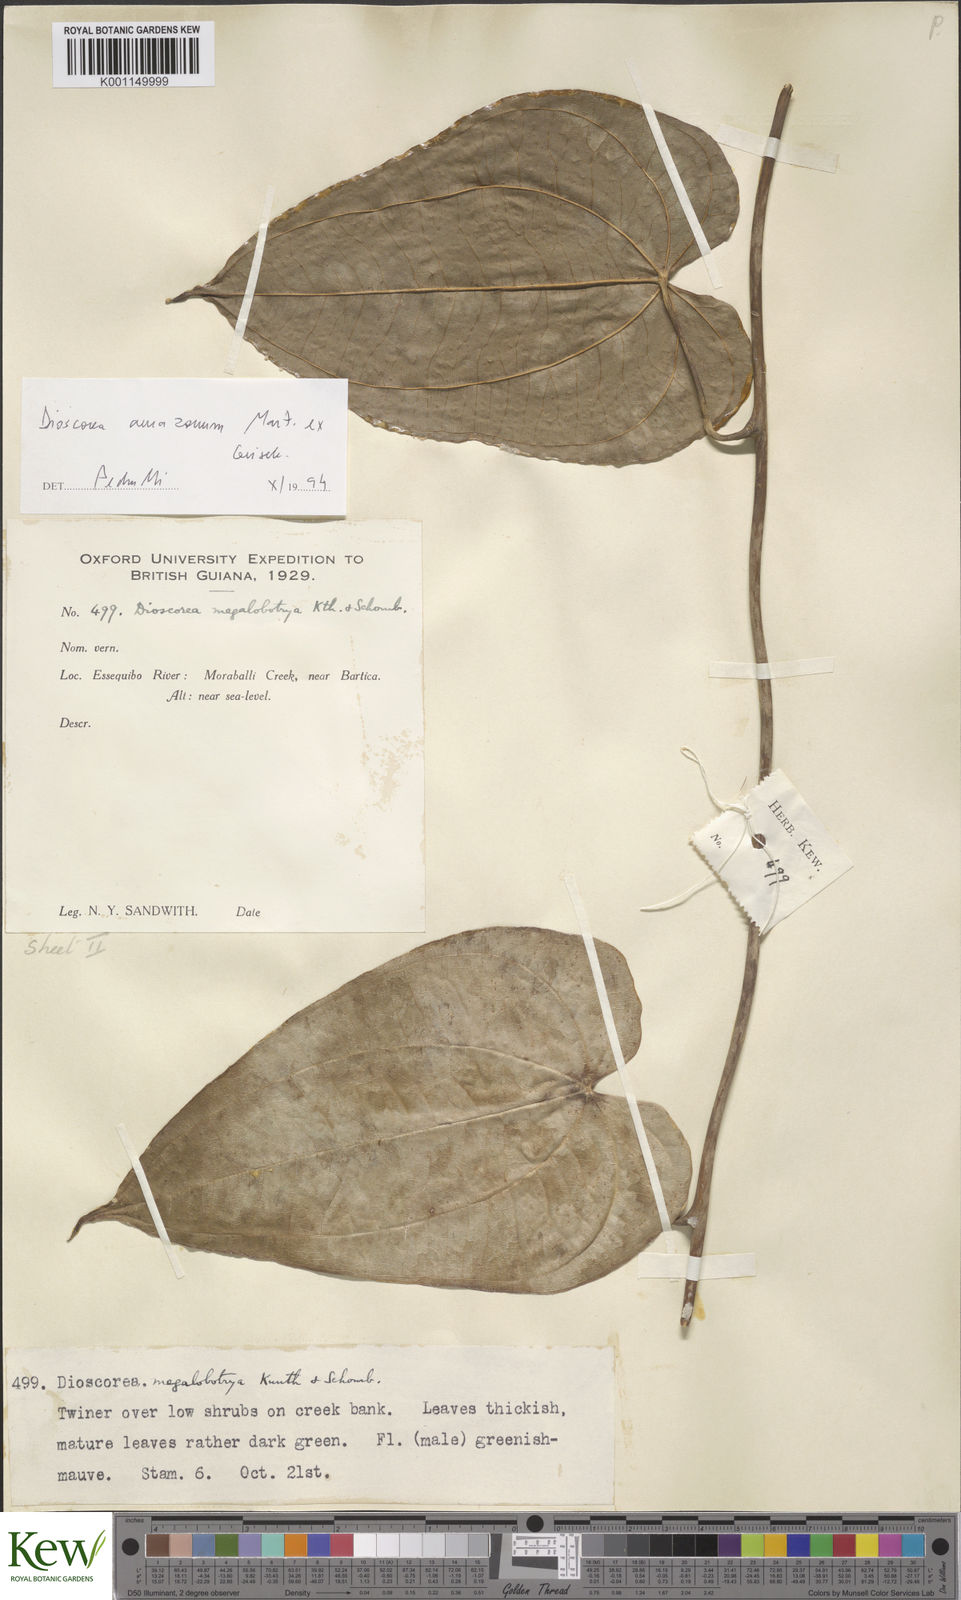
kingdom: Plantae
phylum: Tracheophyta
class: Liliopsida
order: Dioscoreales
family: Dioscoreaceae
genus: Dioscorea
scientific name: Dioscorea amazonum
